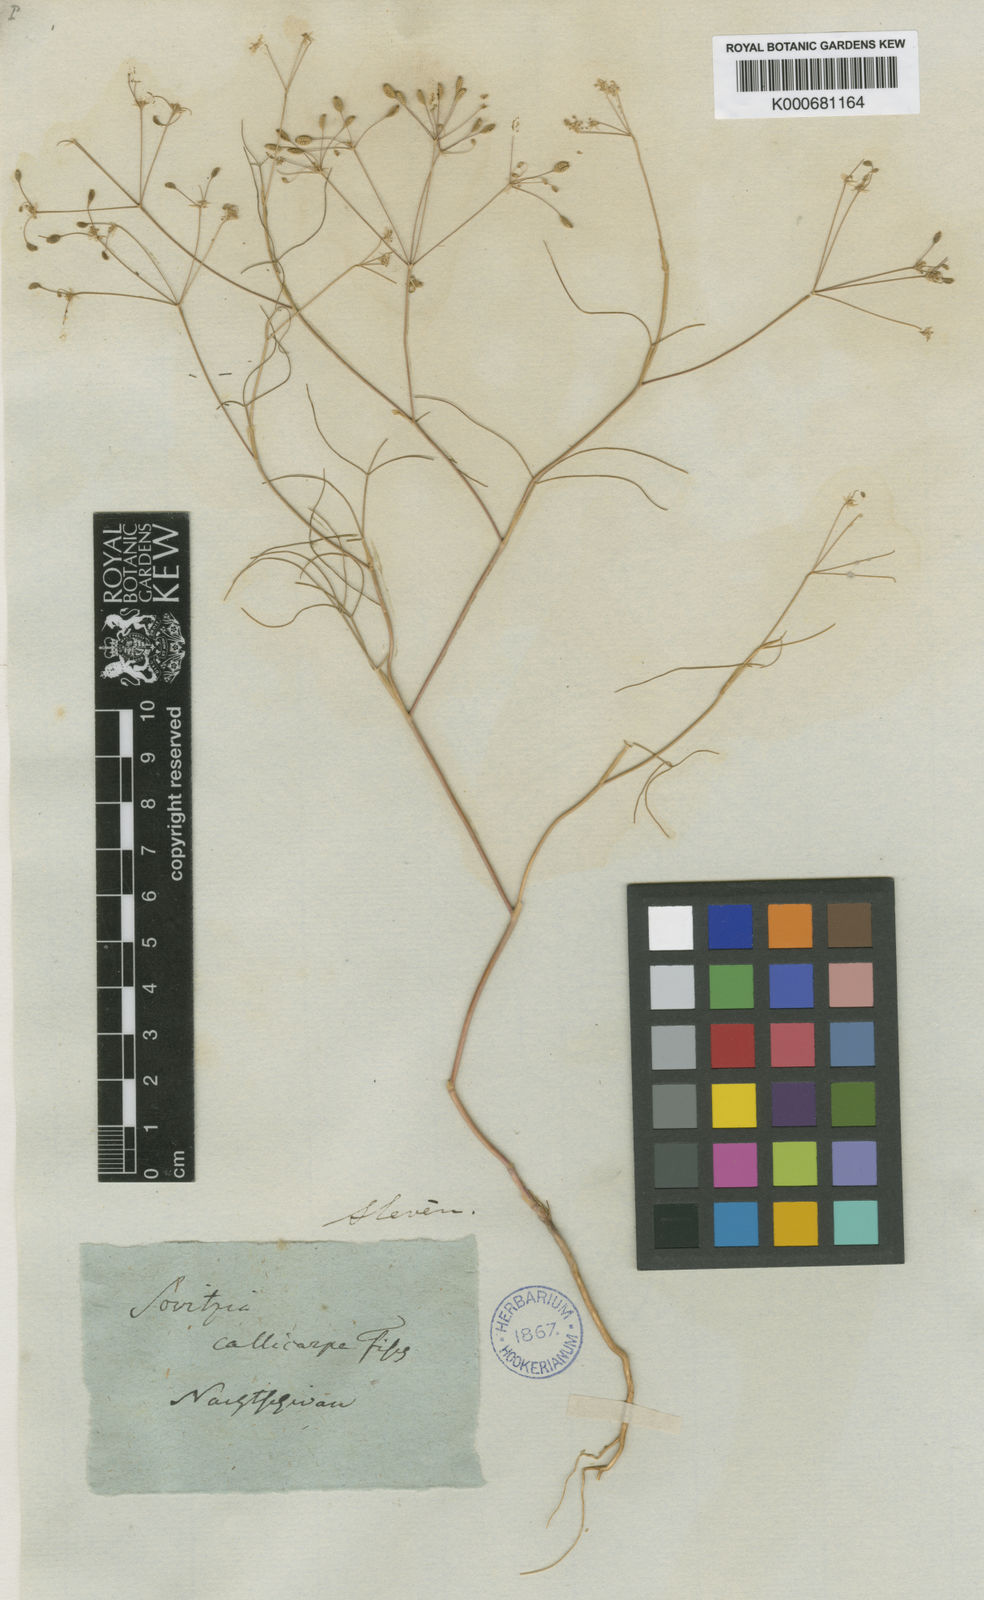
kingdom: Plantae
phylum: Tracheophyta
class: Magnoliopsida
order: Apiales
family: Apiaceae
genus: Szovitsia
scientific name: Szovitsia callicarpa
